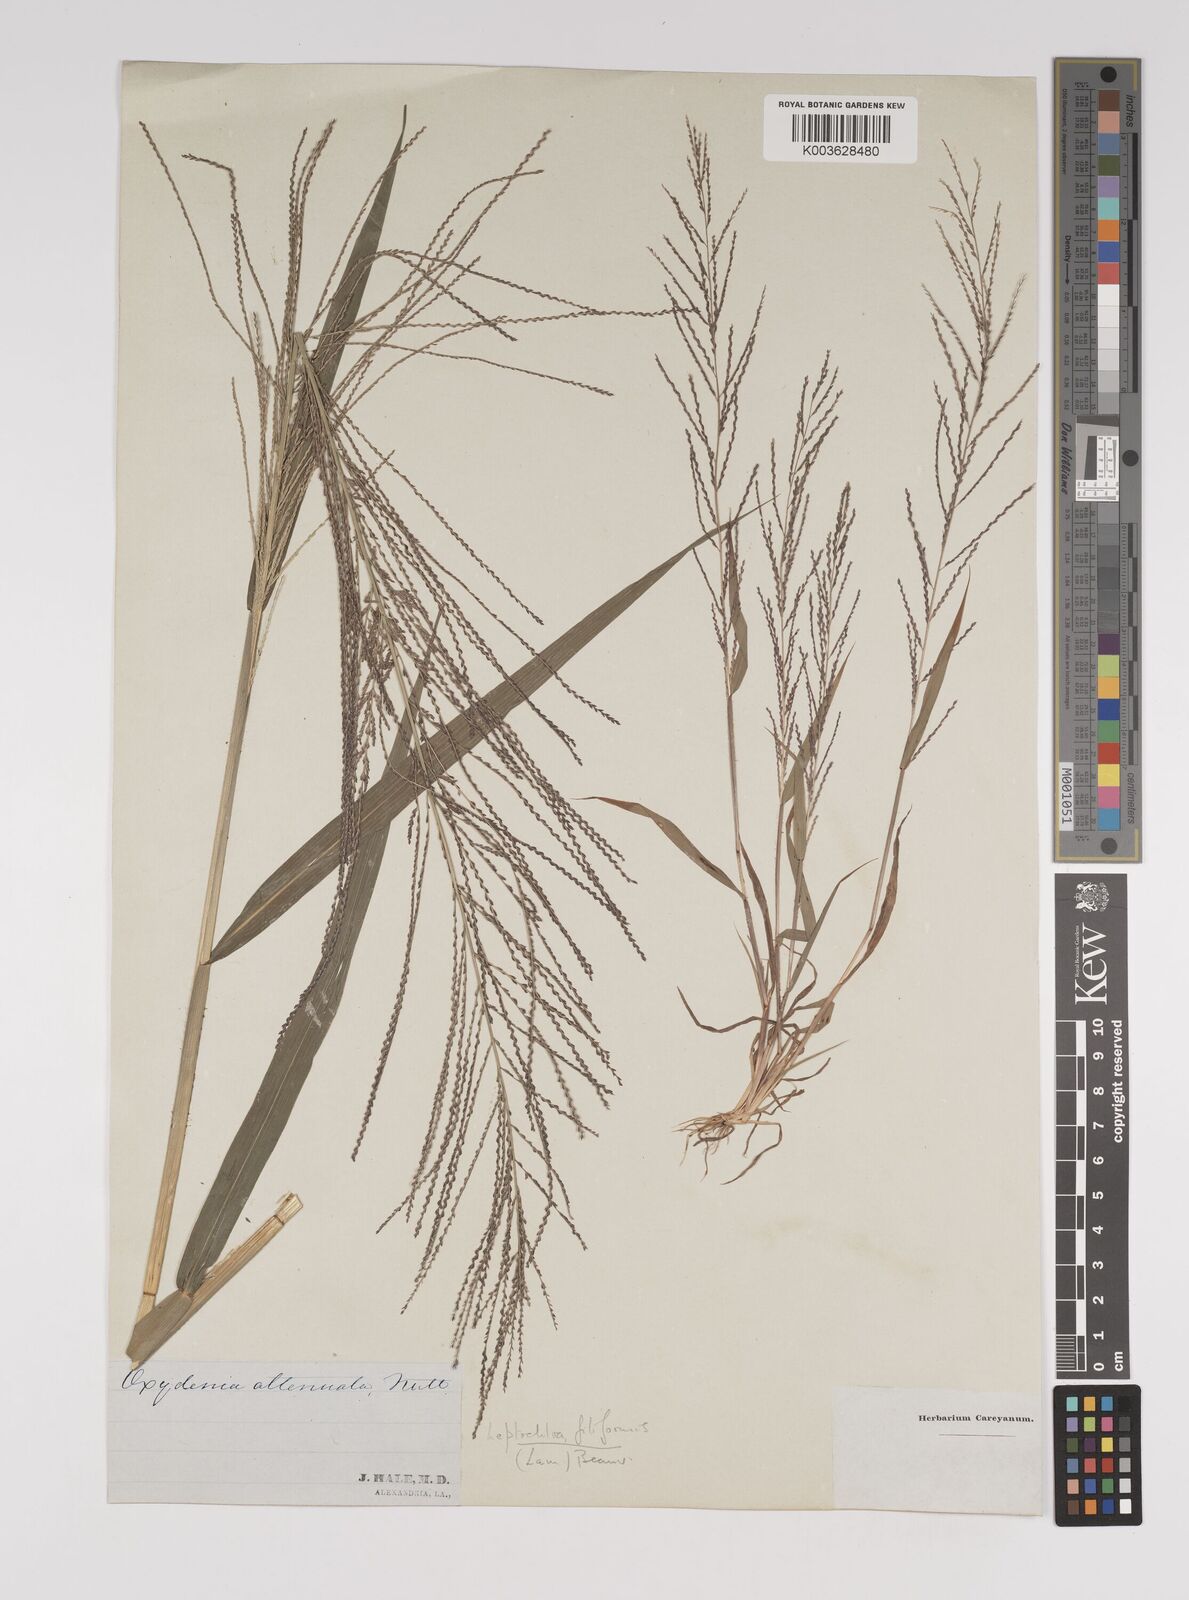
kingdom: Plantae
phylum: Tracheophyta
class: Liliopsida
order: Poales
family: Poaceae
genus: Leptochloa
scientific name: Leptochloa panicea
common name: Mucronate sprangletop
